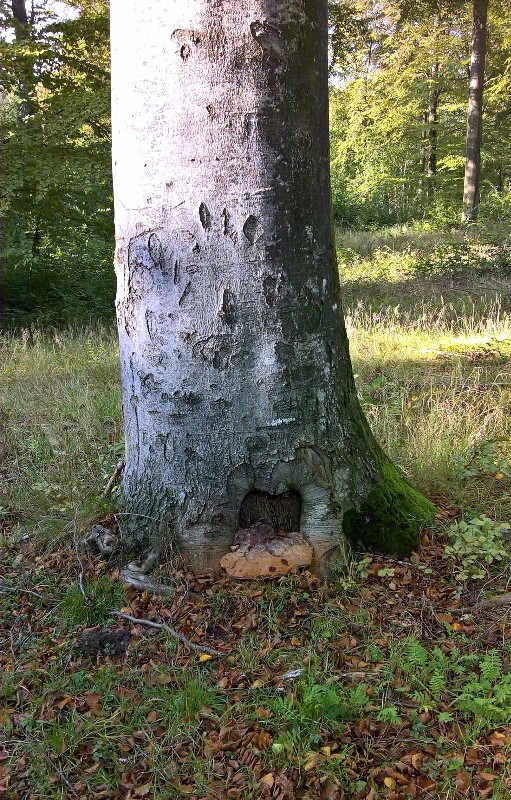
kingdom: Fungi
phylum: Basidiomycota
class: Agaricomycetes
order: Polyporales
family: Polyporaceae
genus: Ganoderma
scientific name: Ganoderma resinaceum
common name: gyldenbrun lakporesvamp
